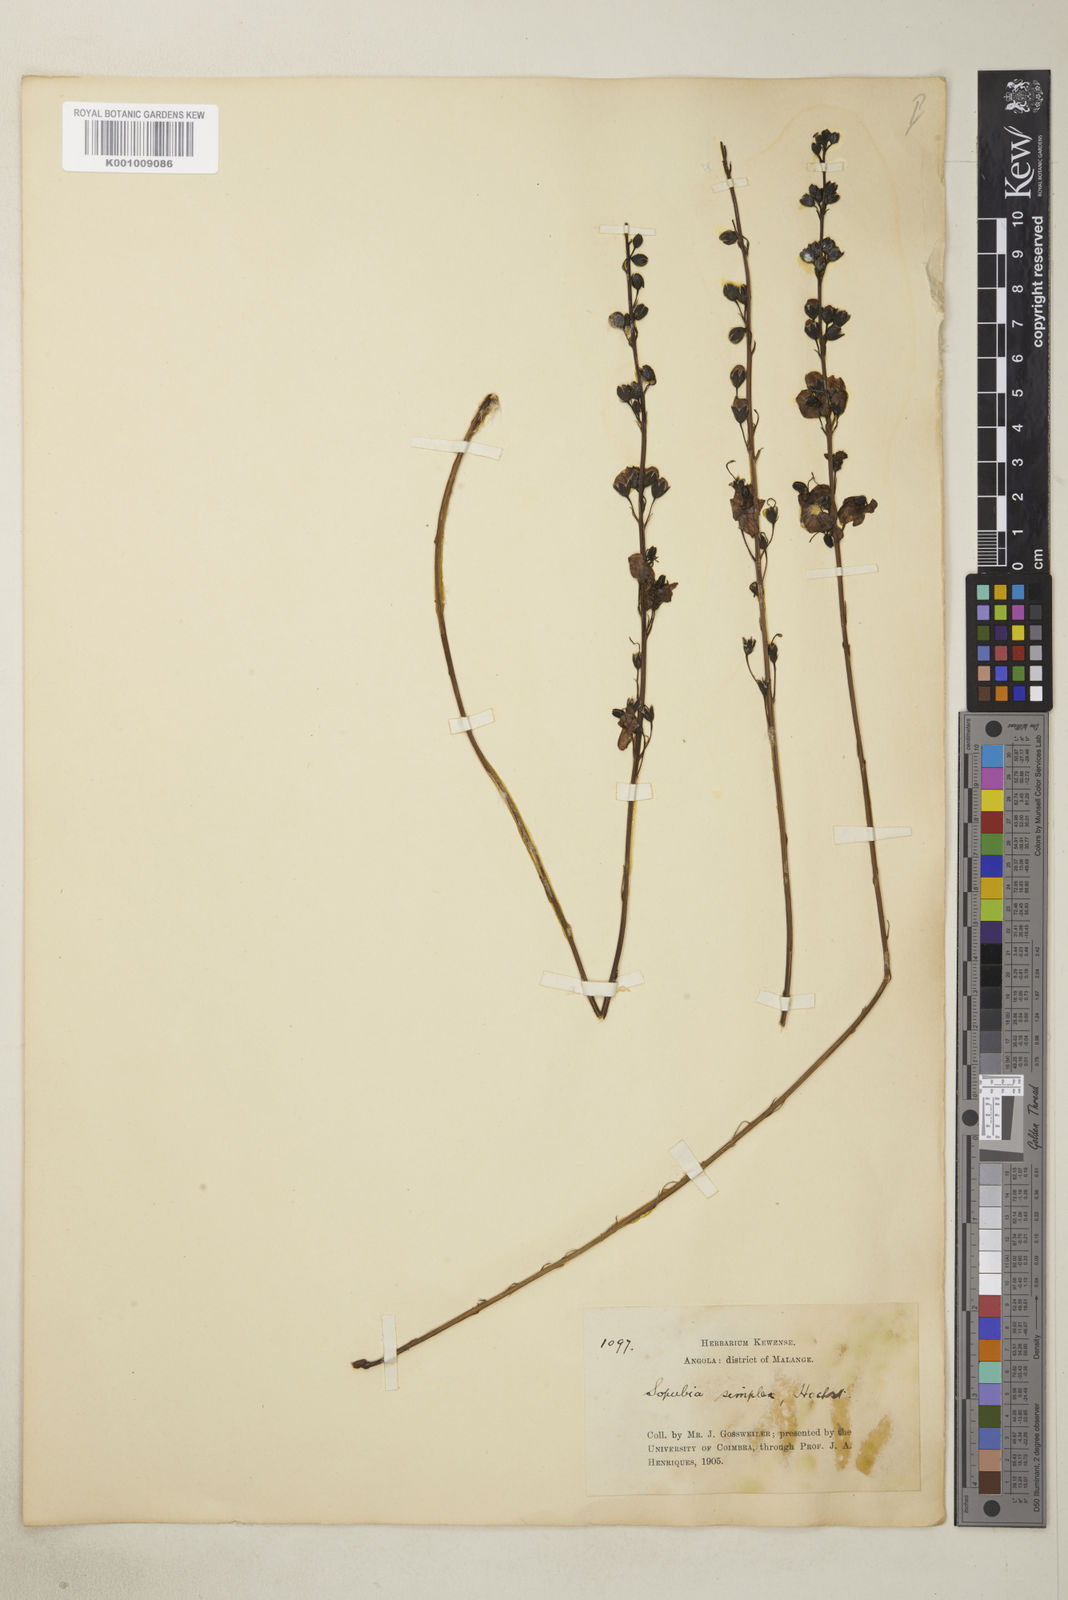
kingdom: Plantae
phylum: Tracheophyta
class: Magnoliopsida
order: Lamiales
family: Orobanchaceae
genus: Sopubia
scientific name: Sopubia simplex
